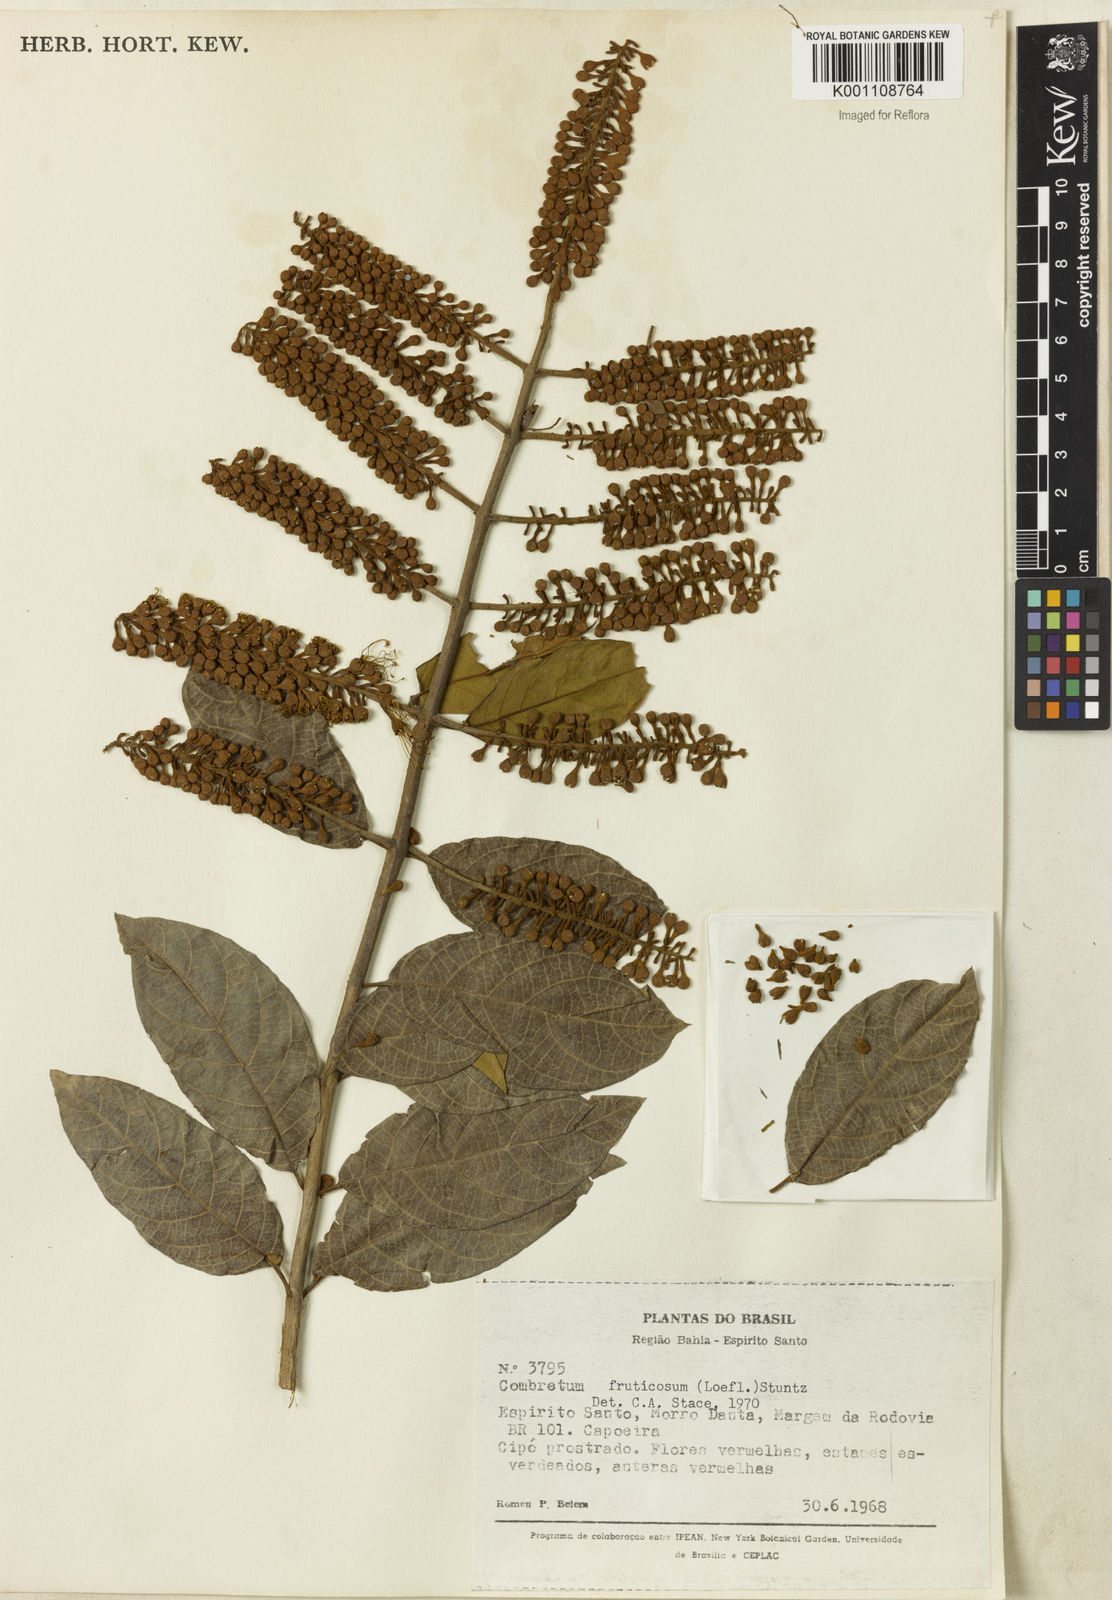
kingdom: Plantae
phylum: Tracheophyta
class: Magnoliopsida
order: Myrtales
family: Combretaceae
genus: Combretum
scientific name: Combretum fruticosum
